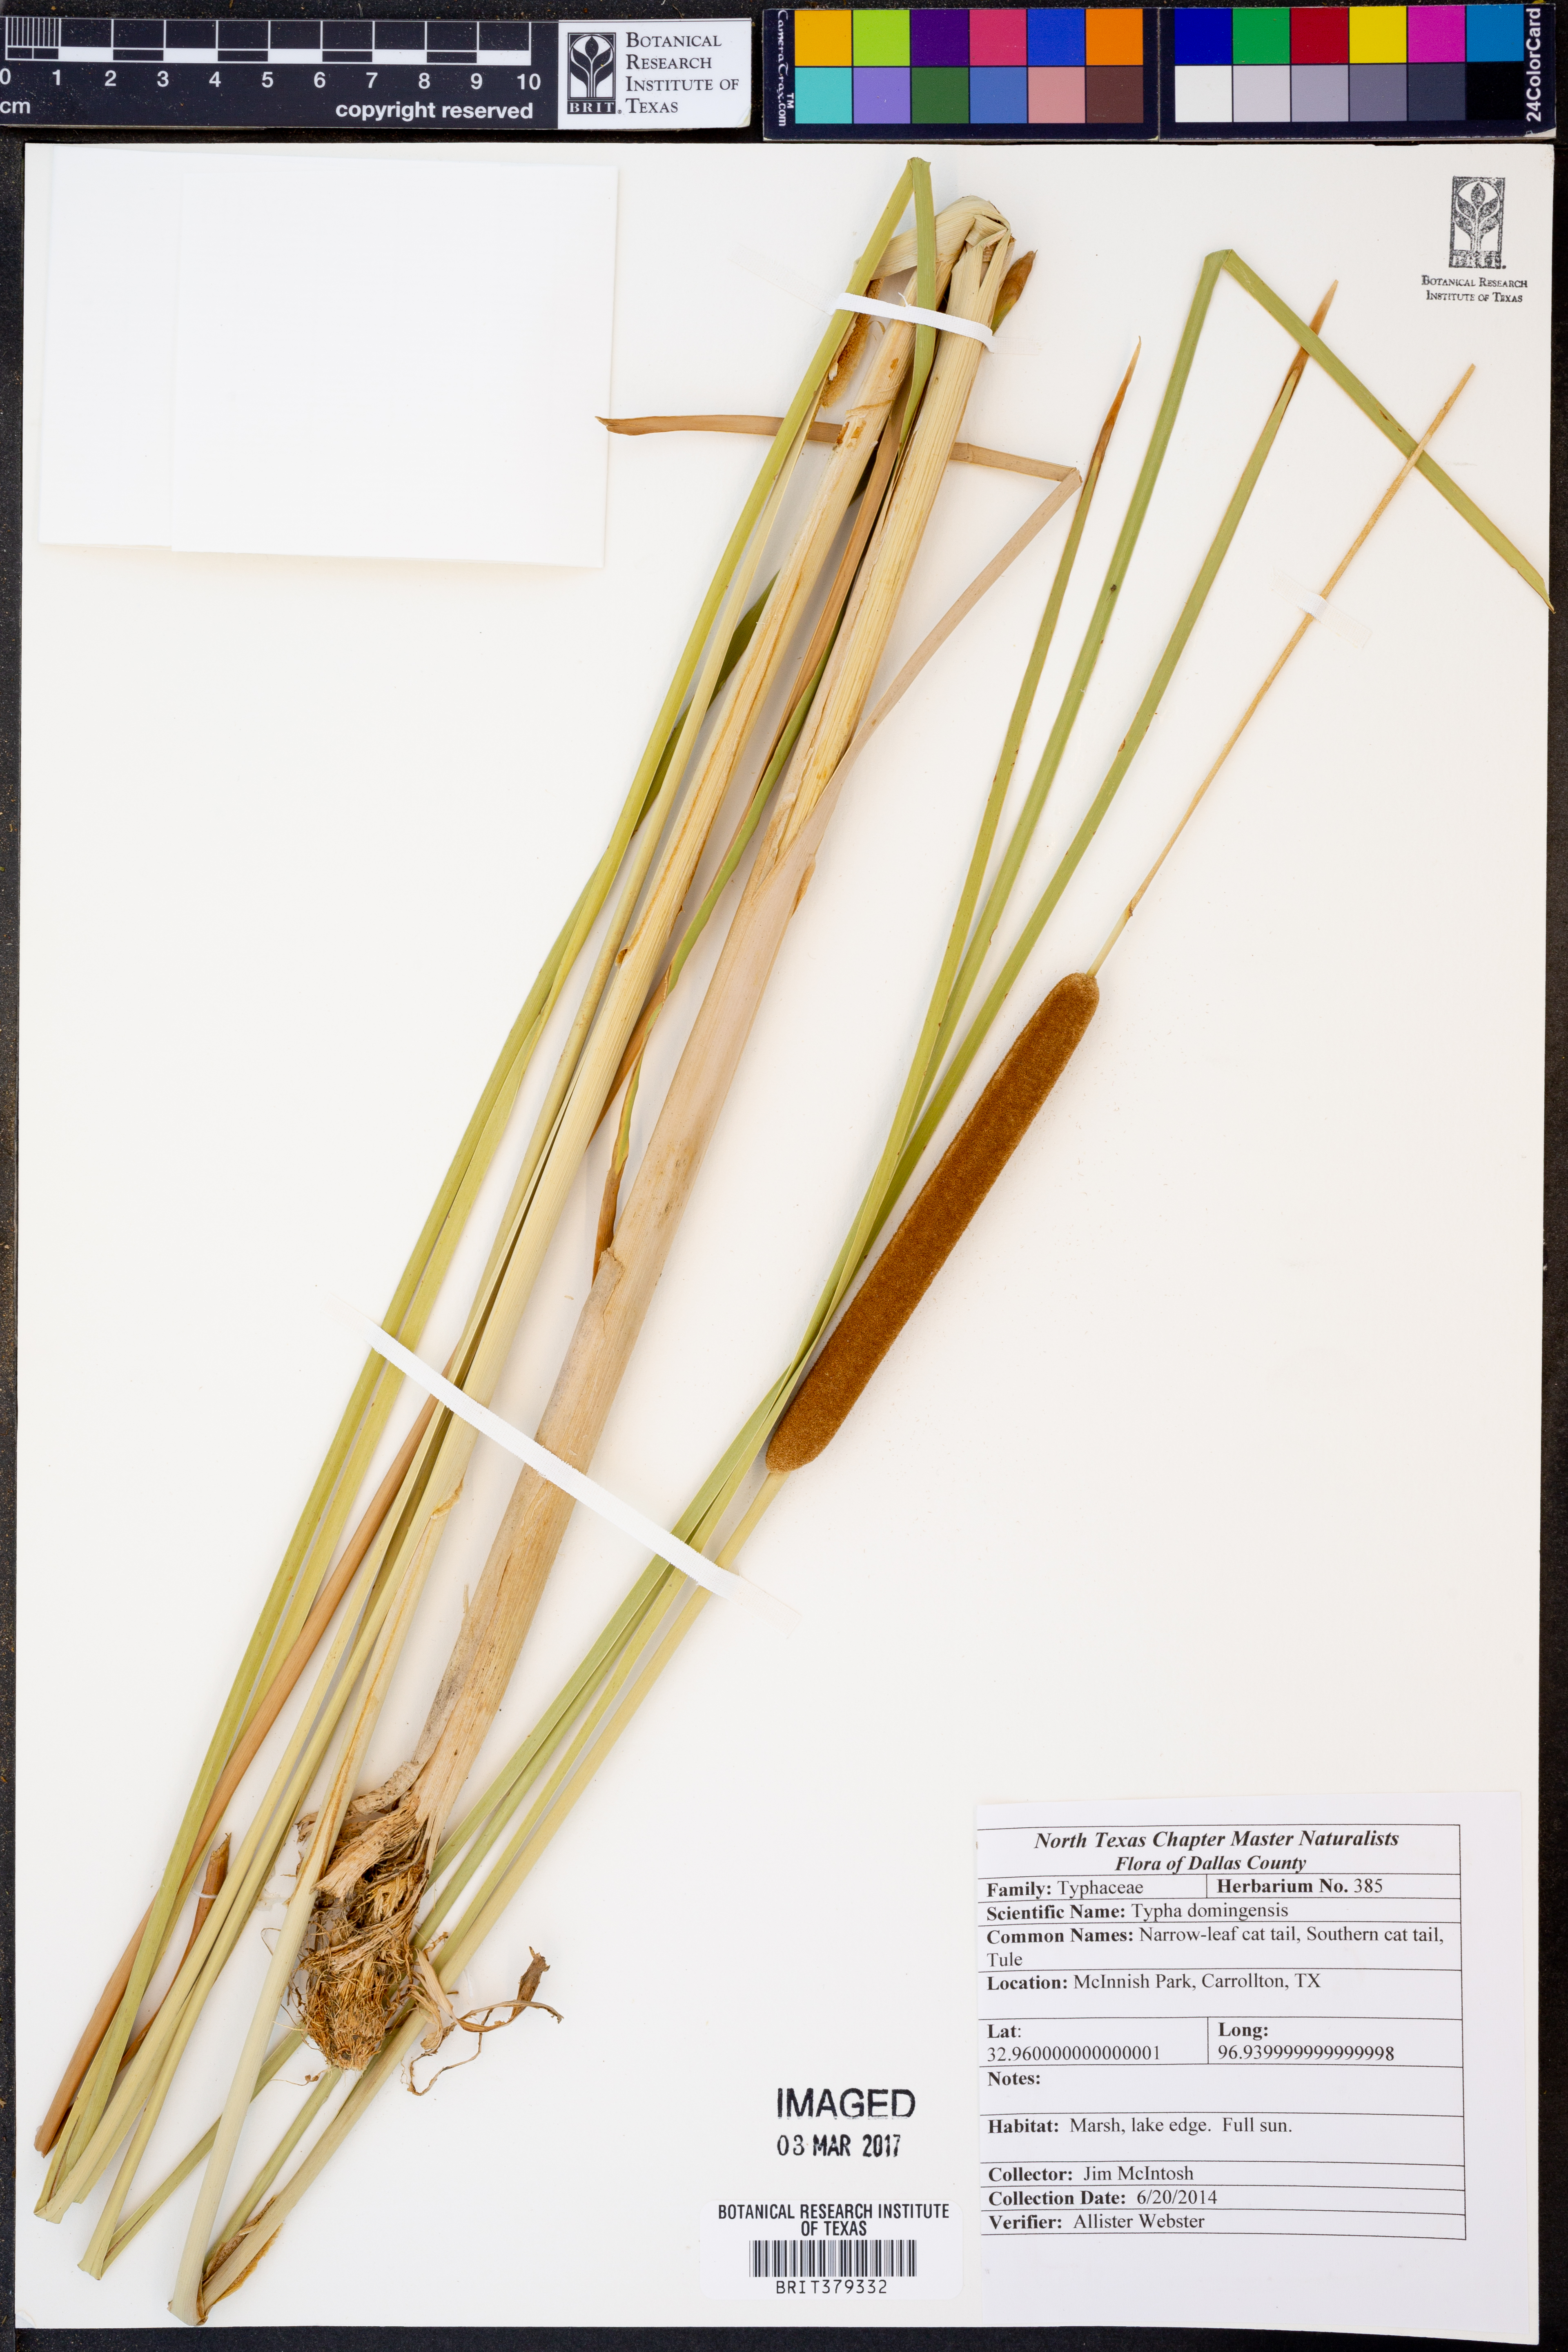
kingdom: Plantae
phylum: Tracheophyta
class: Liliopsida
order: Poales
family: Typhaceae
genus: Typha
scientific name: Typha domingensis
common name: Southern cattail
